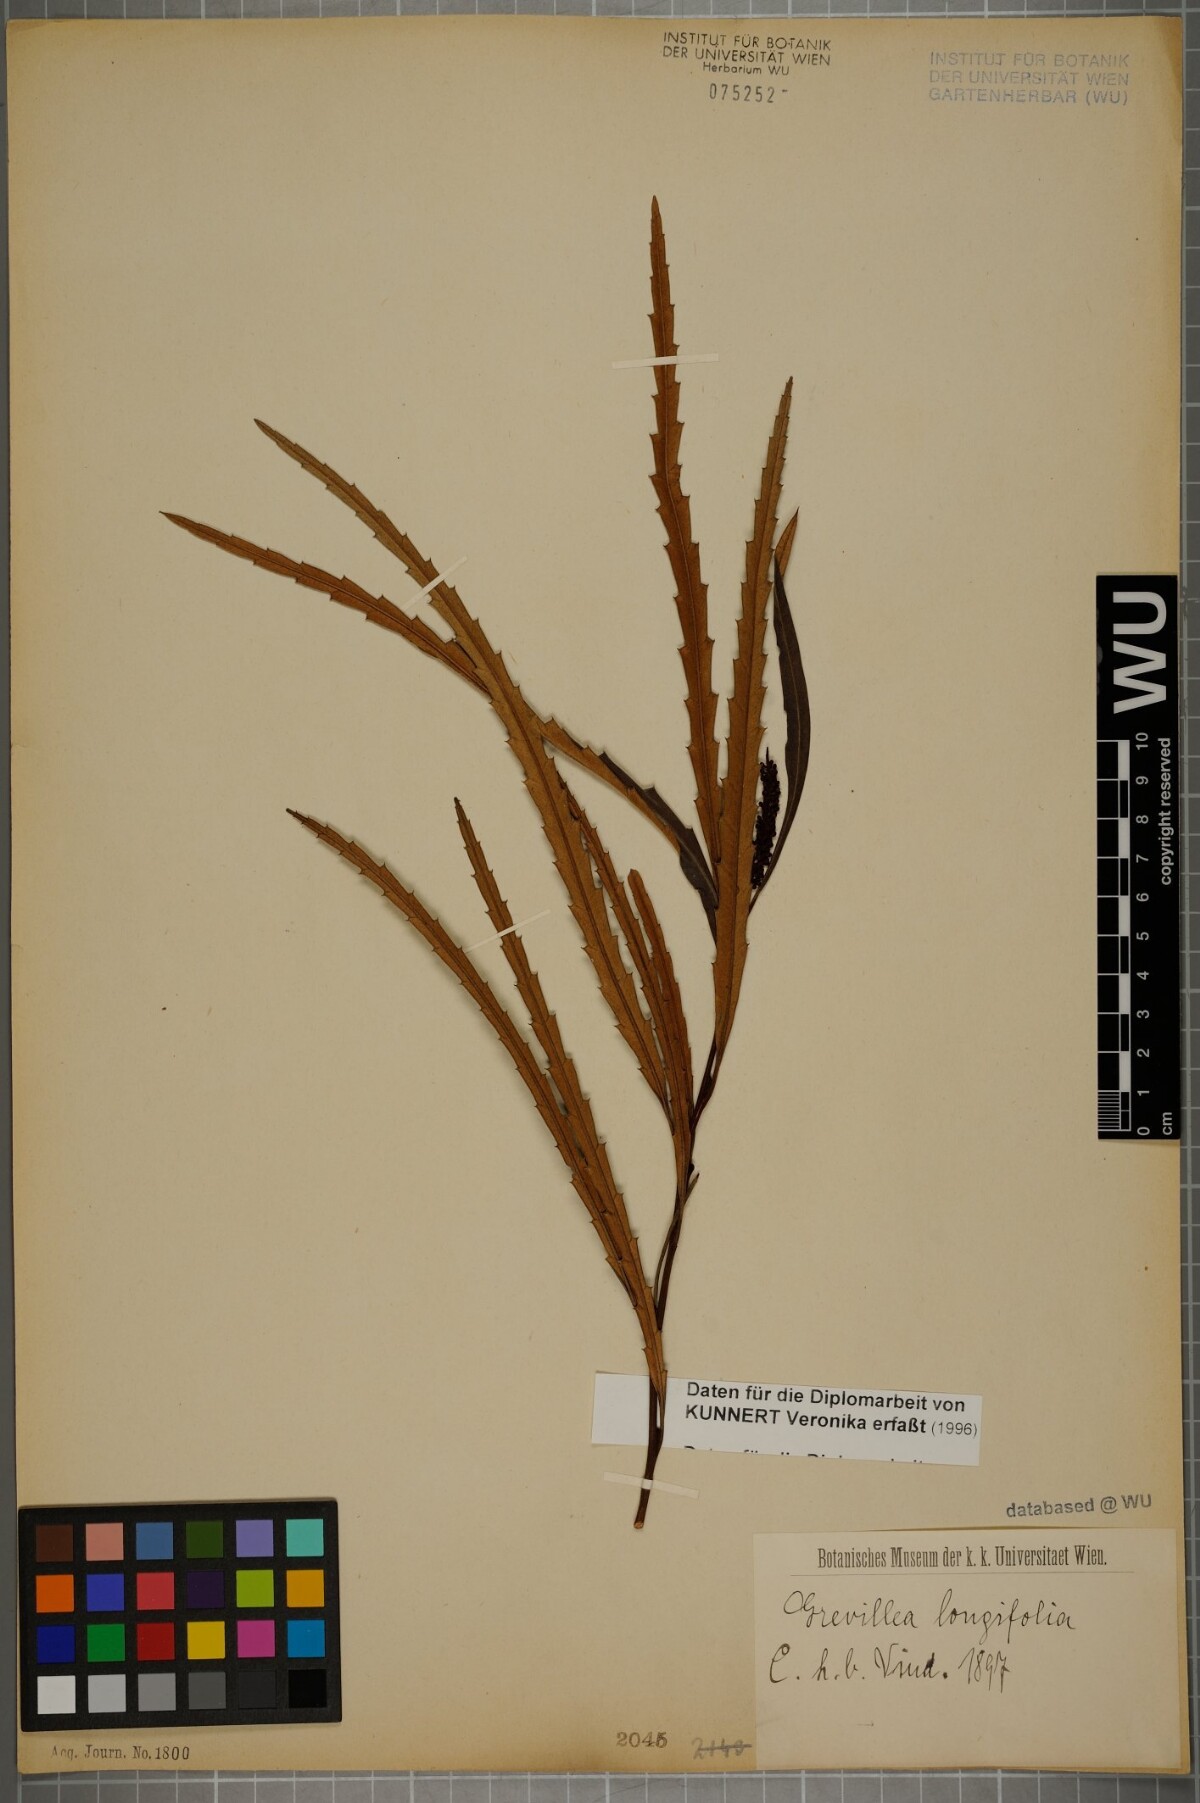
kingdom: Plantae
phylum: Tracheophyta
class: Magnoliopsida
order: Proteales
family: Proteaceae
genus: Grevillea
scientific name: Grevillea longifolia
